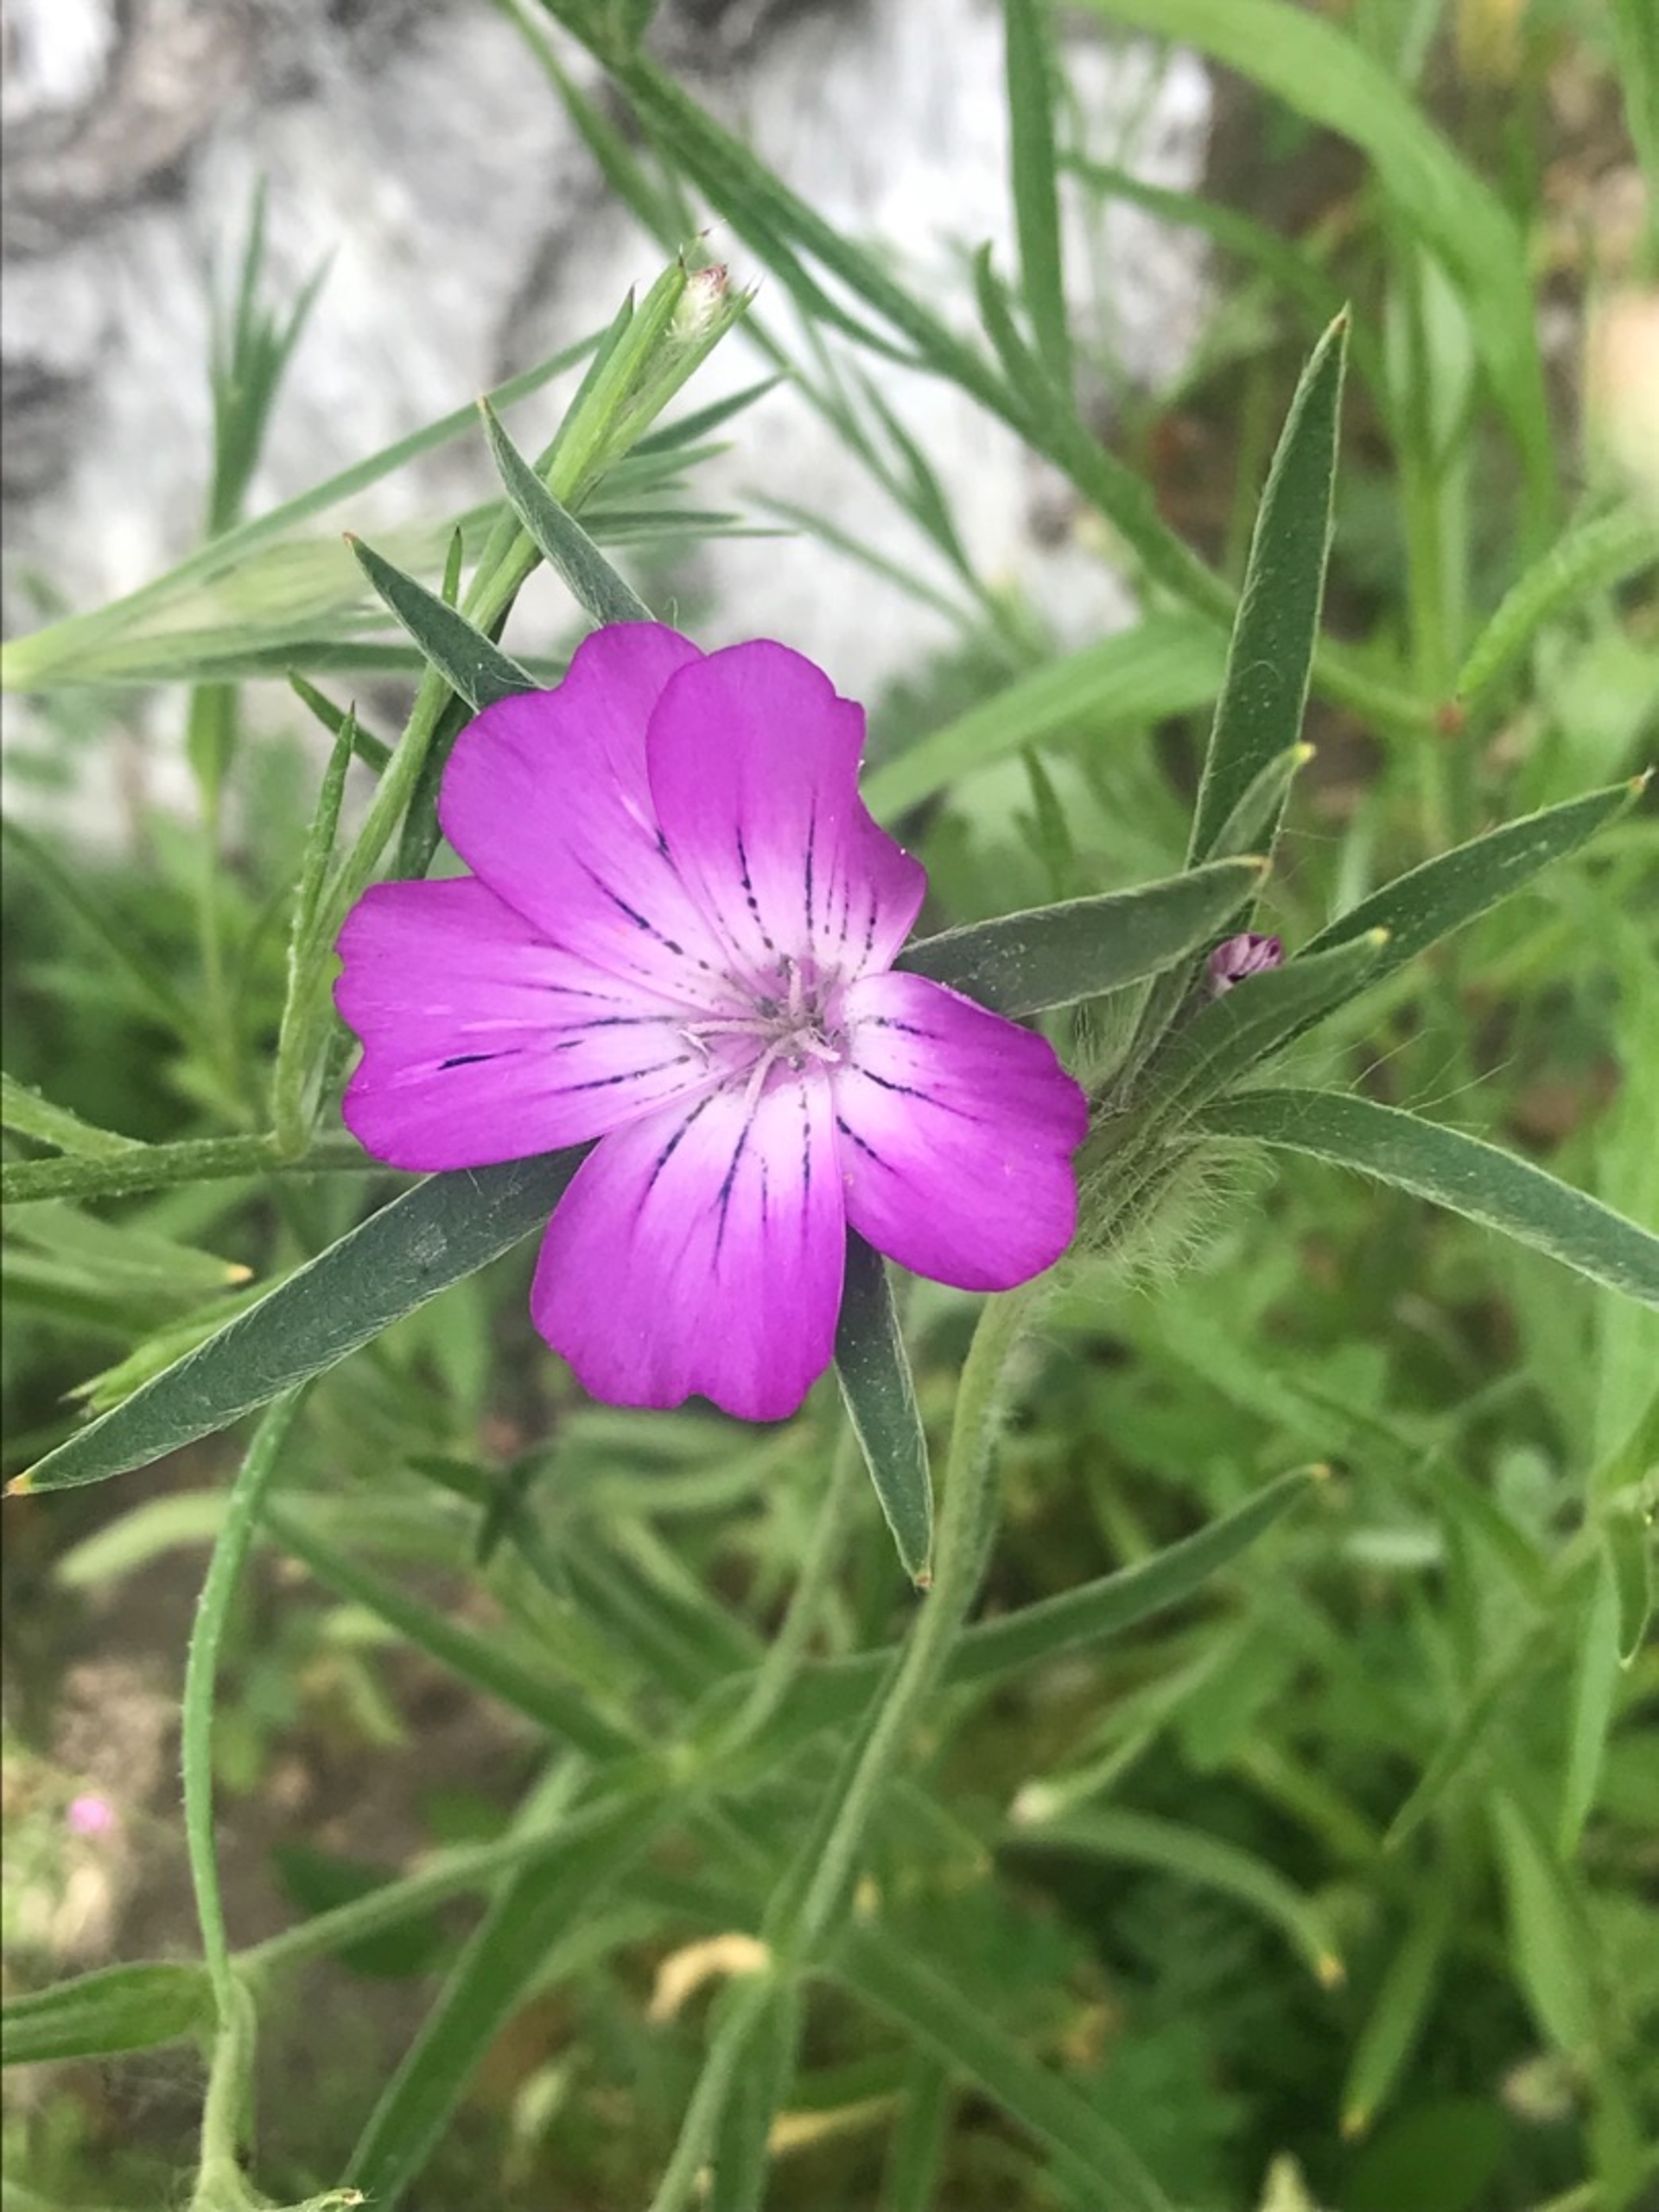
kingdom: Plantae
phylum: Tracheophyta
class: Magnoliopsida
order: Caryophyllales
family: Caryophyllaceae
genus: Agrostemma
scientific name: Agrostemma githago
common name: Klinte
